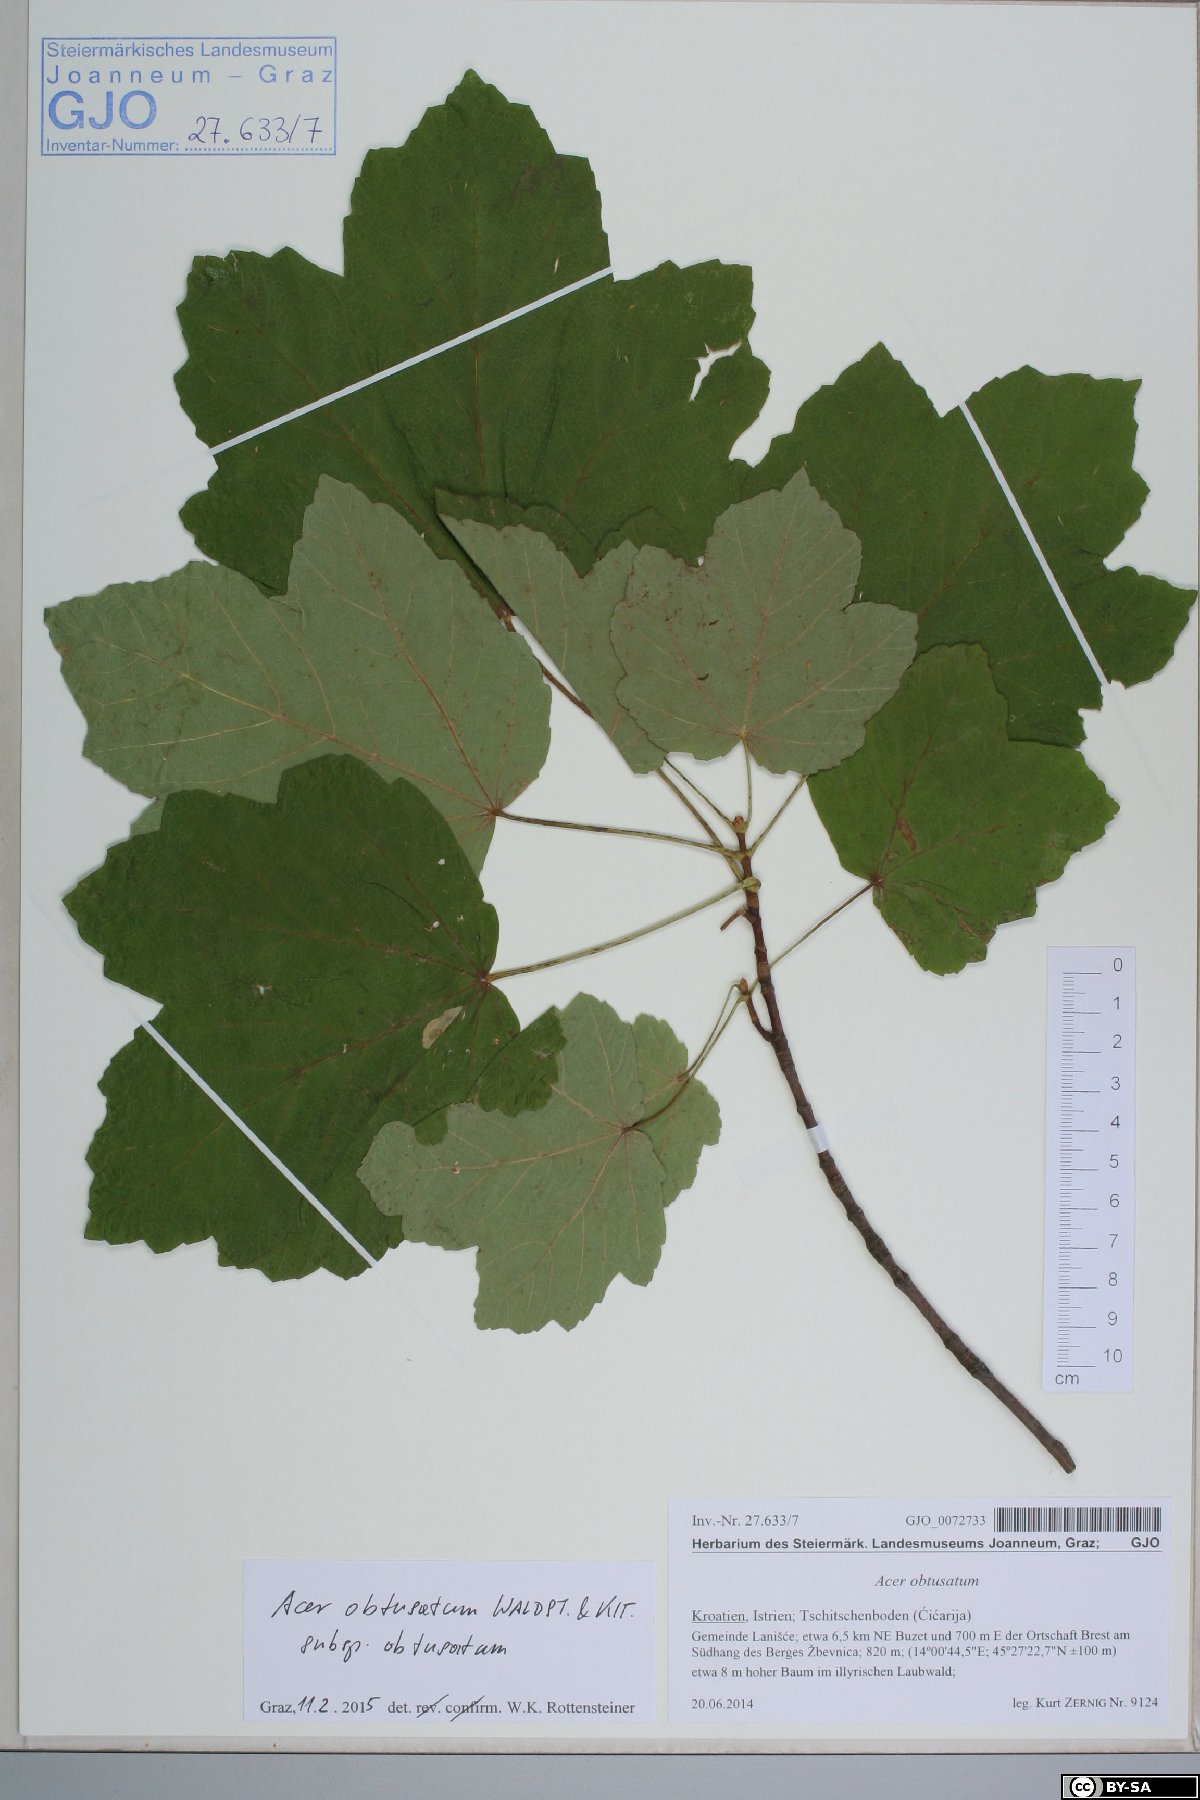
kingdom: Plantae
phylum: Tracheophyta
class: Magnoliopsida
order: Sapindales
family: Sapindaceae
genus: Acer
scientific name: Acer obtusatum
